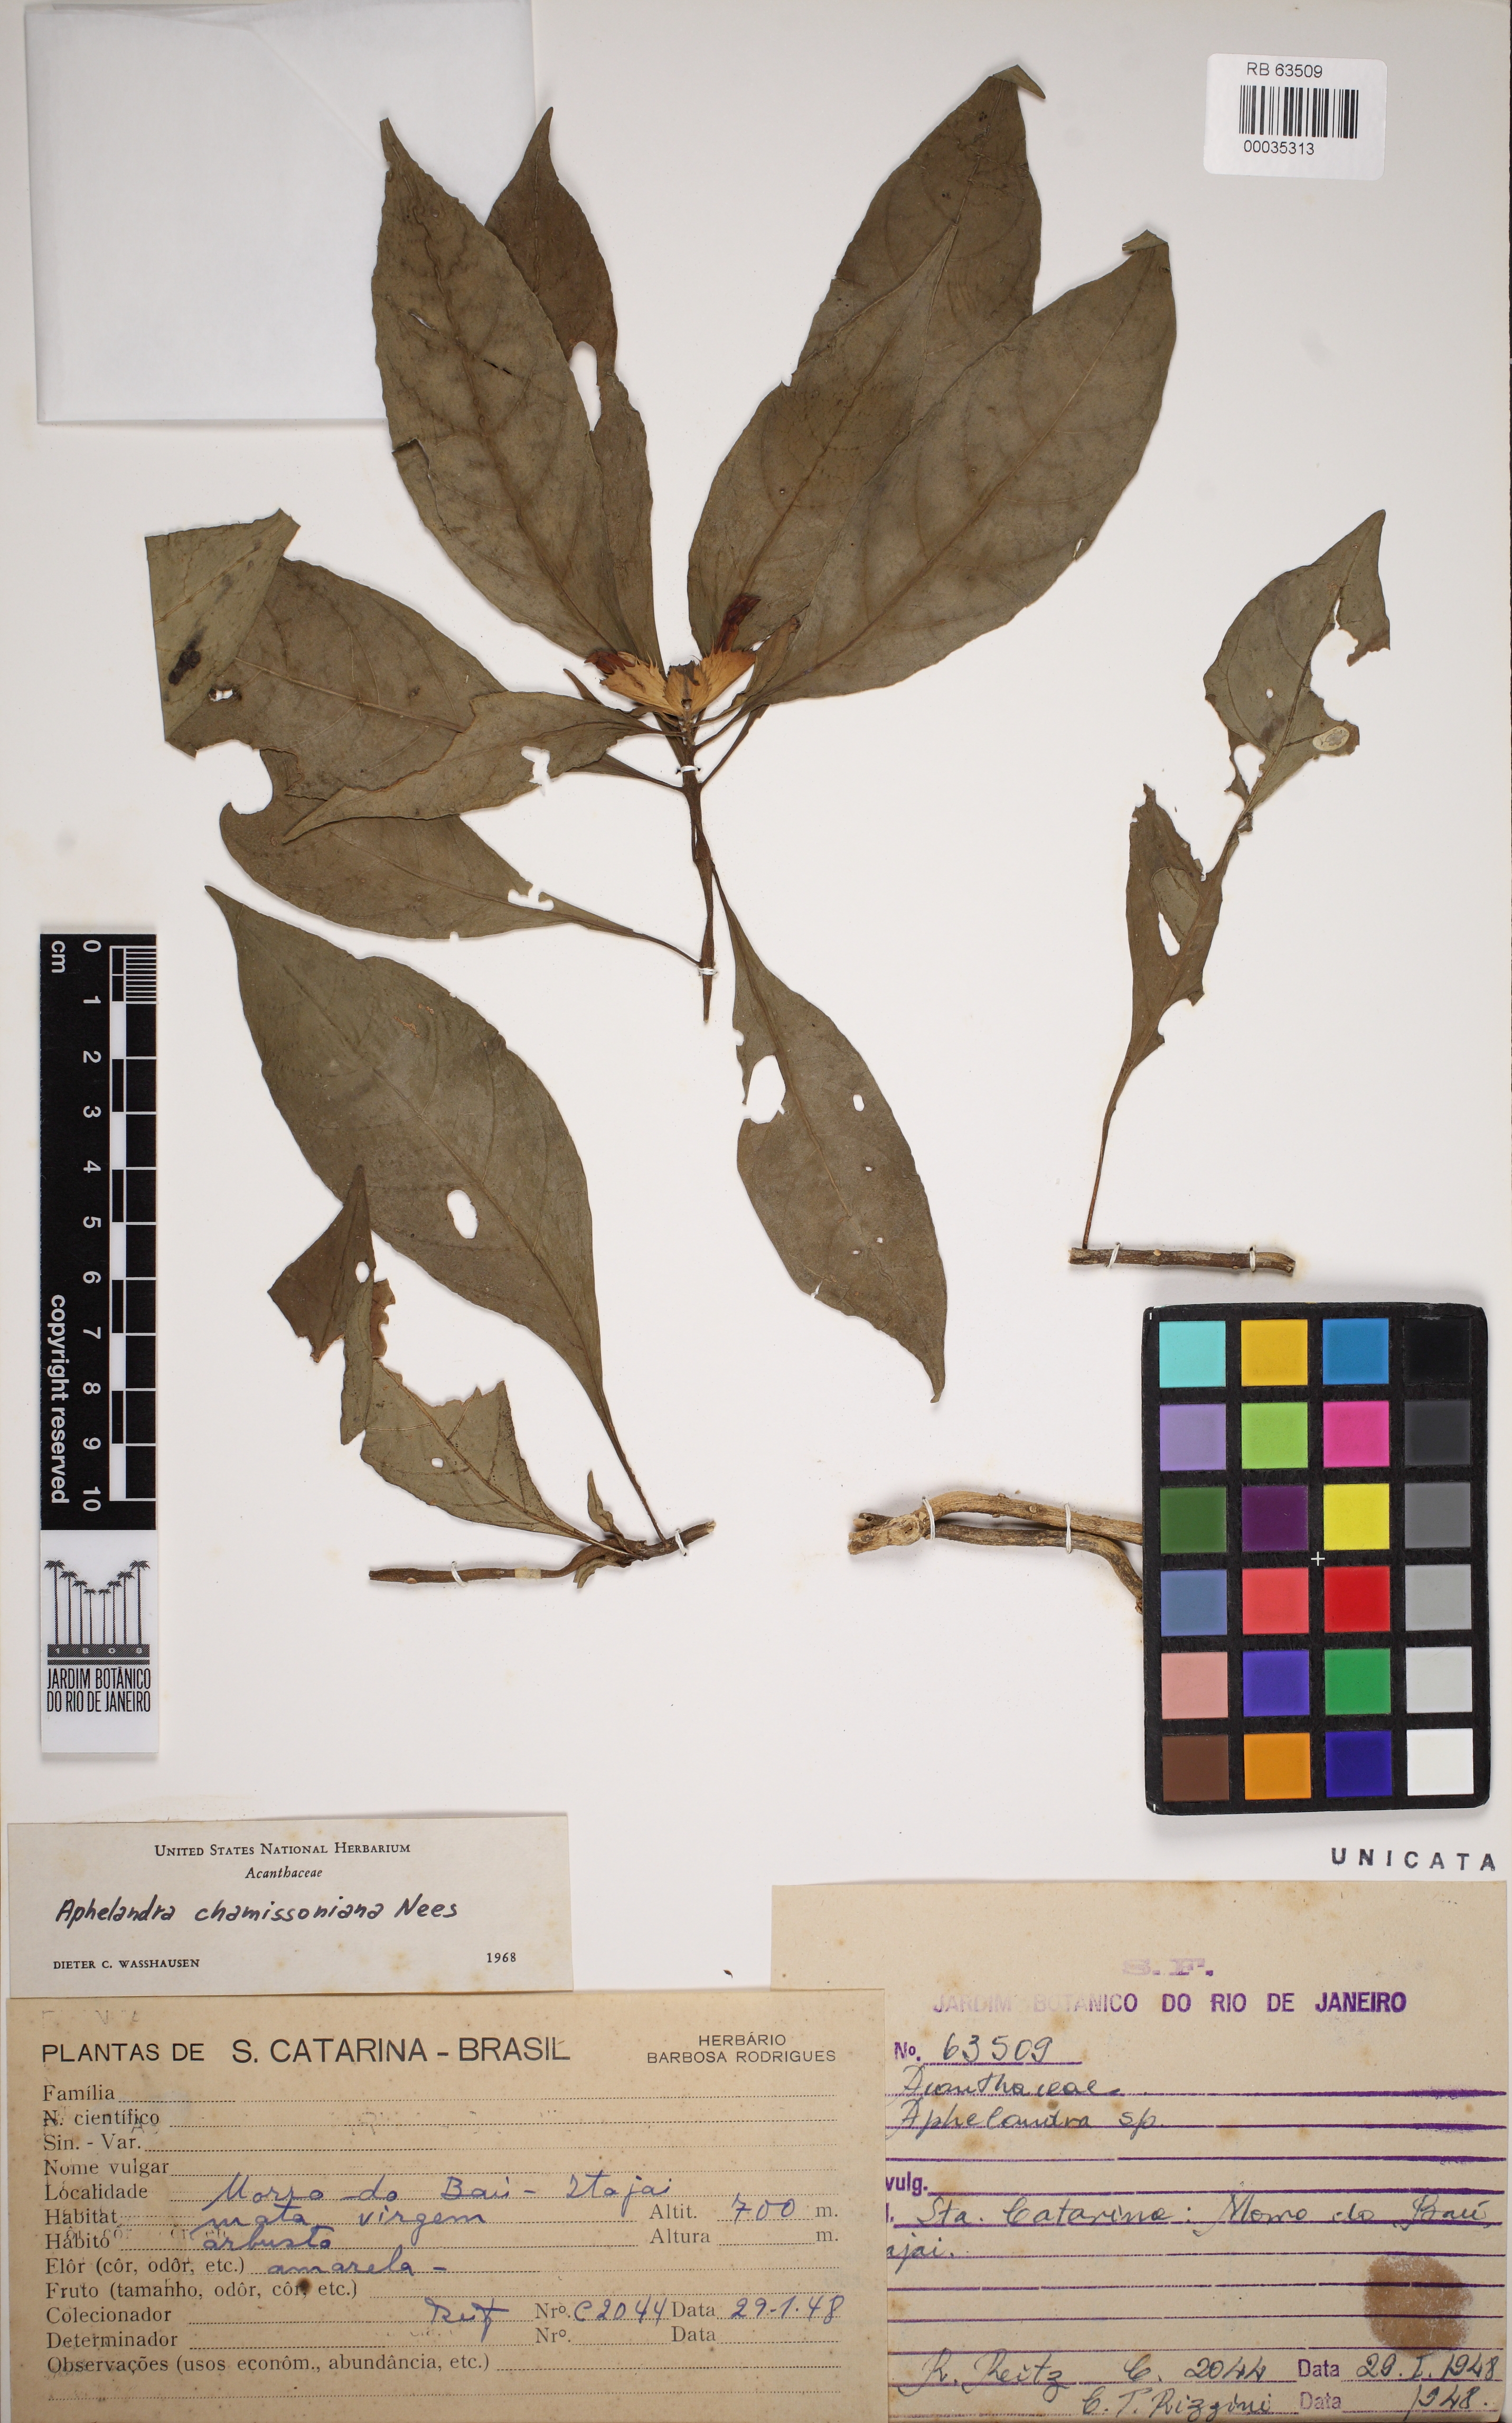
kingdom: Plantae
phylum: Tracheophyta
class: Magnoliopsida
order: Lamiales
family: Acanthaceae
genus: Aphelandra
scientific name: Aphelandra chamissoniana
